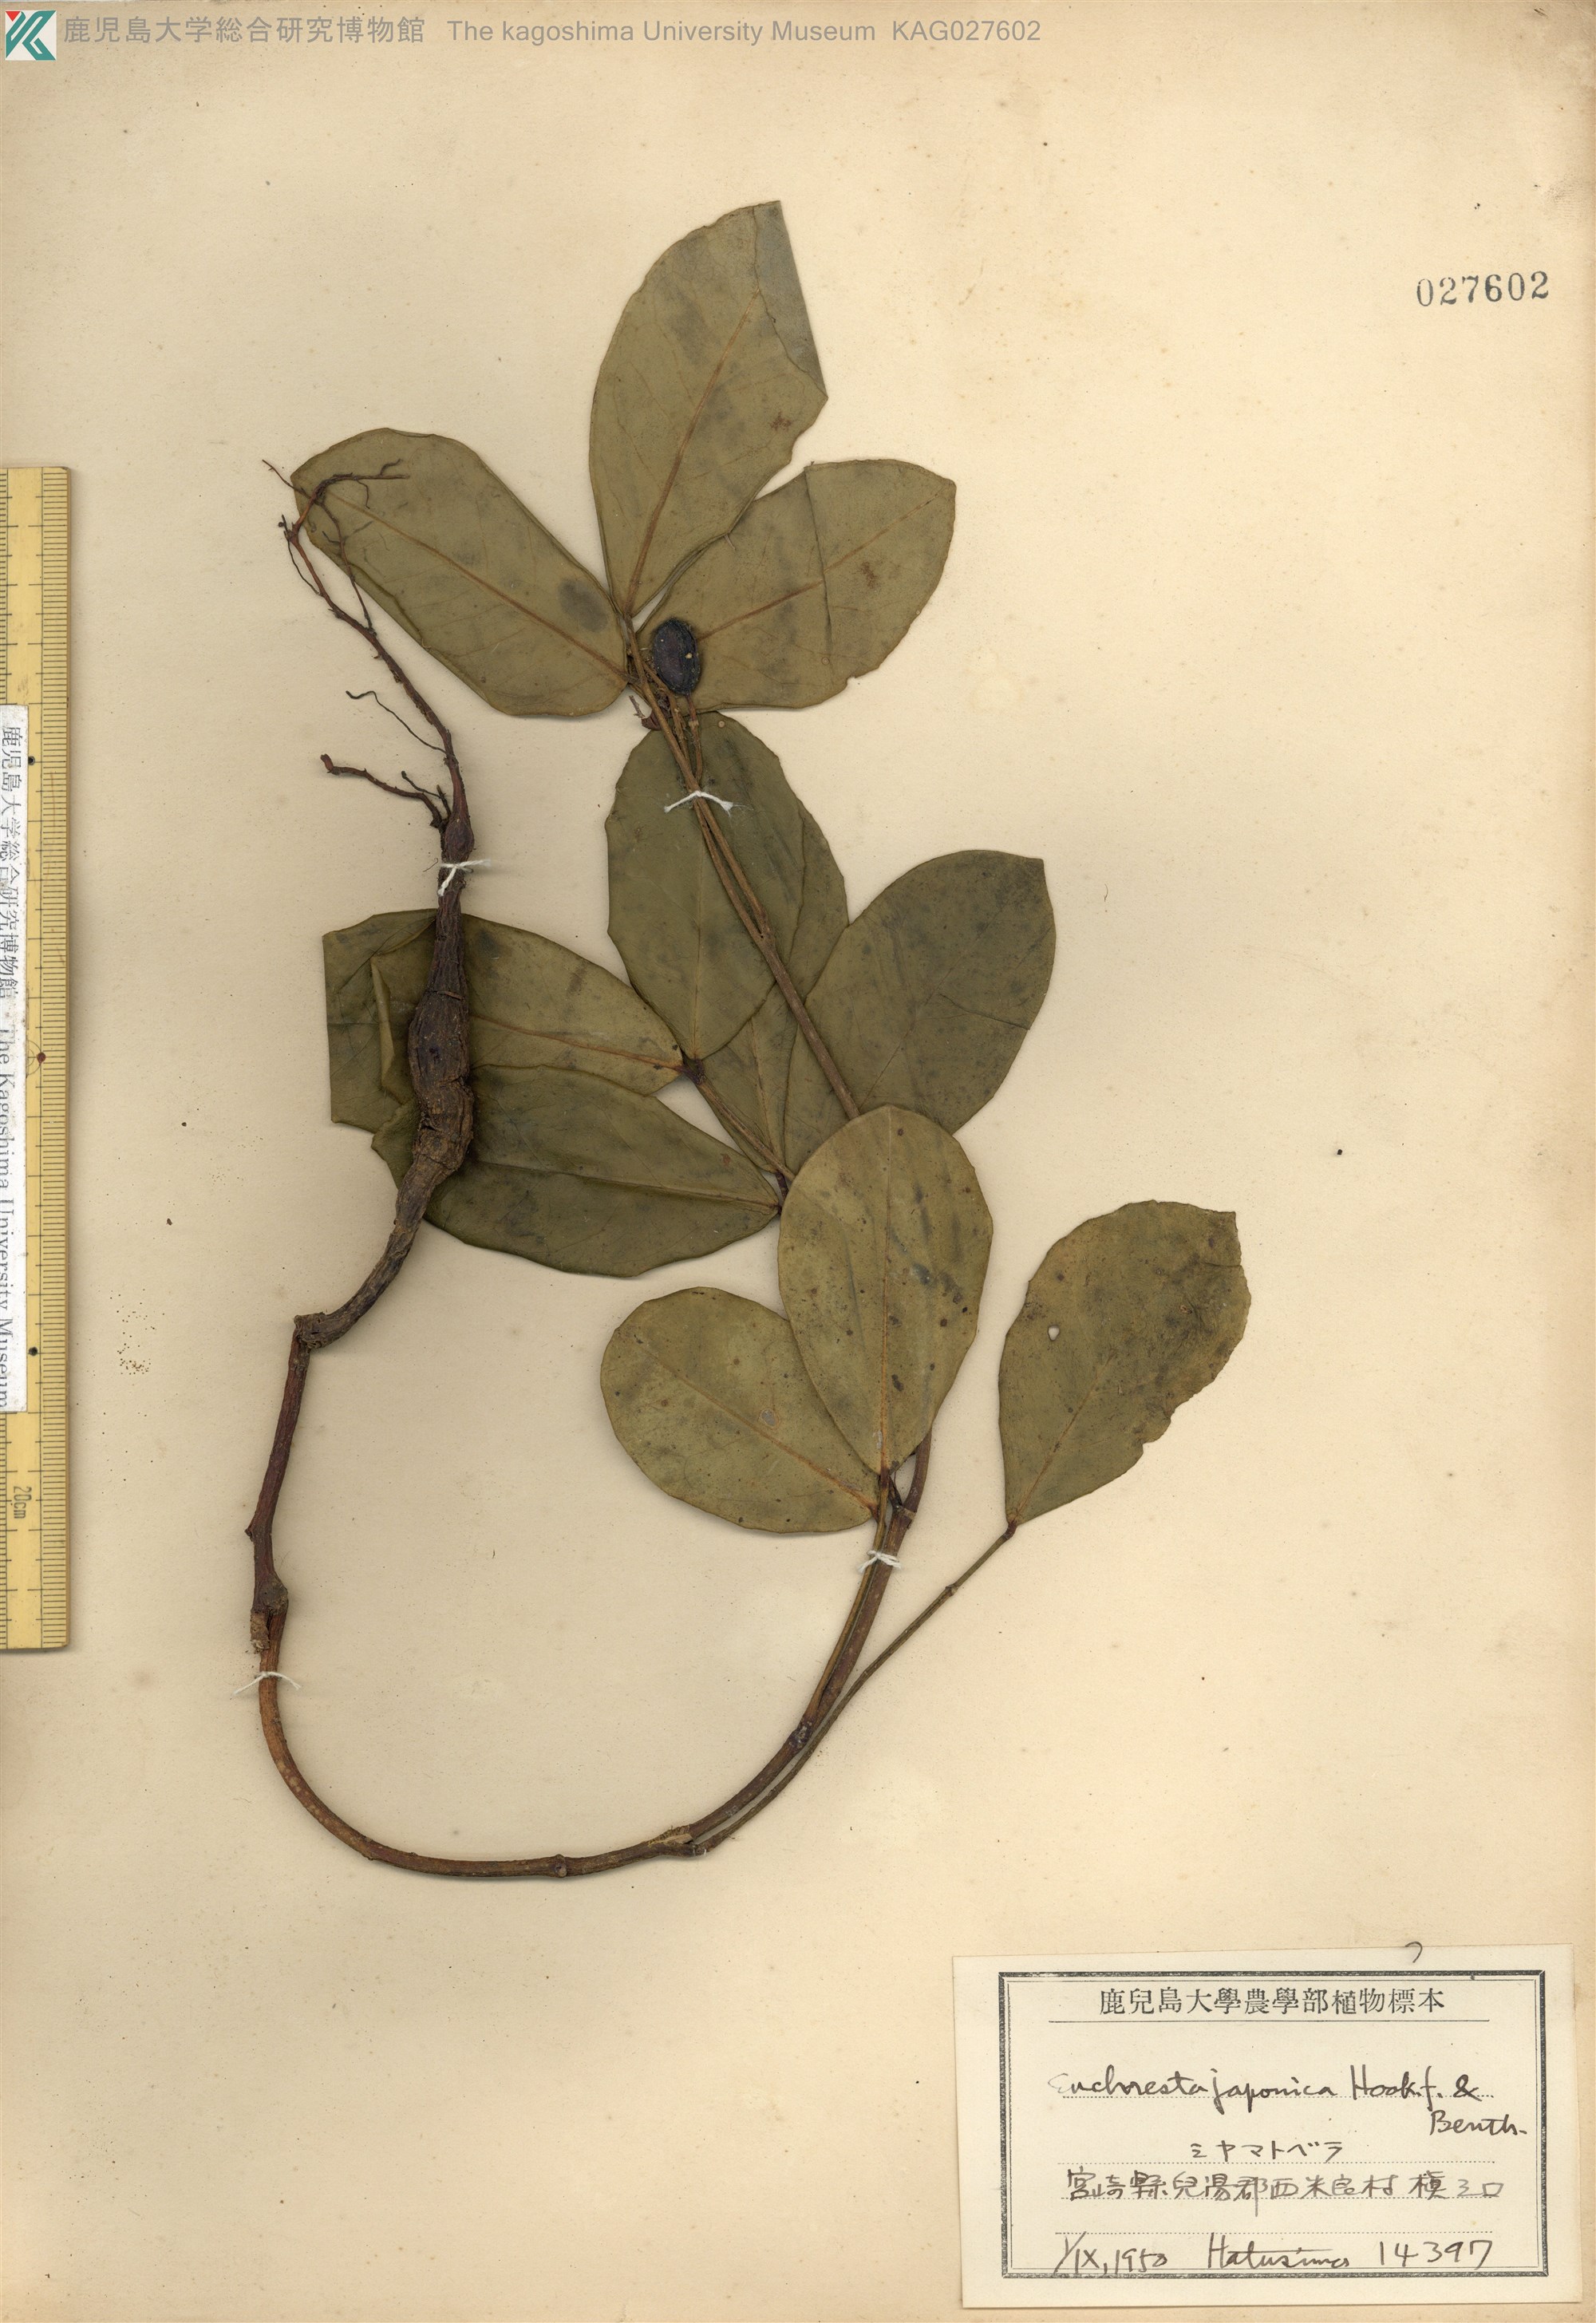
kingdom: Plantae
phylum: Tracheophyta
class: Magnoliopsida
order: Fabales
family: Fabaceae
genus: Euchresta
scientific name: Euchresta japonica
